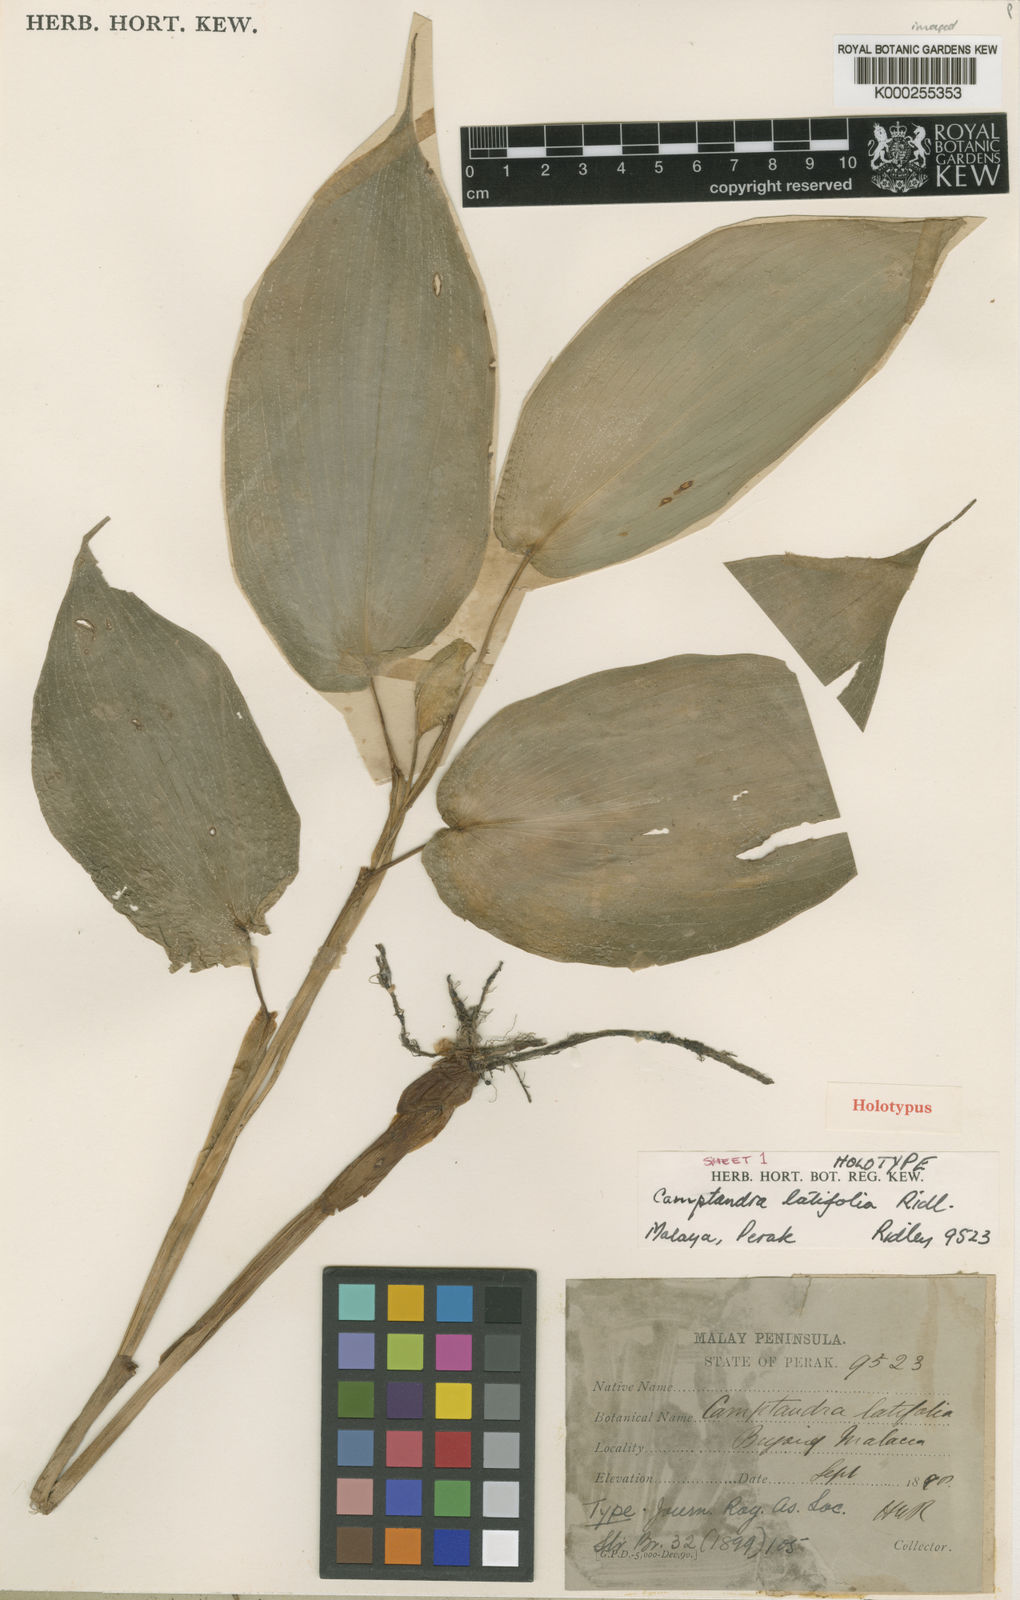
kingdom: Plantae
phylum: Tracheophyta
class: Liliopsida
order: Zingiberales
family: Zingiberaceae
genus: Camptandra
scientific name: Camptandra latifolia
